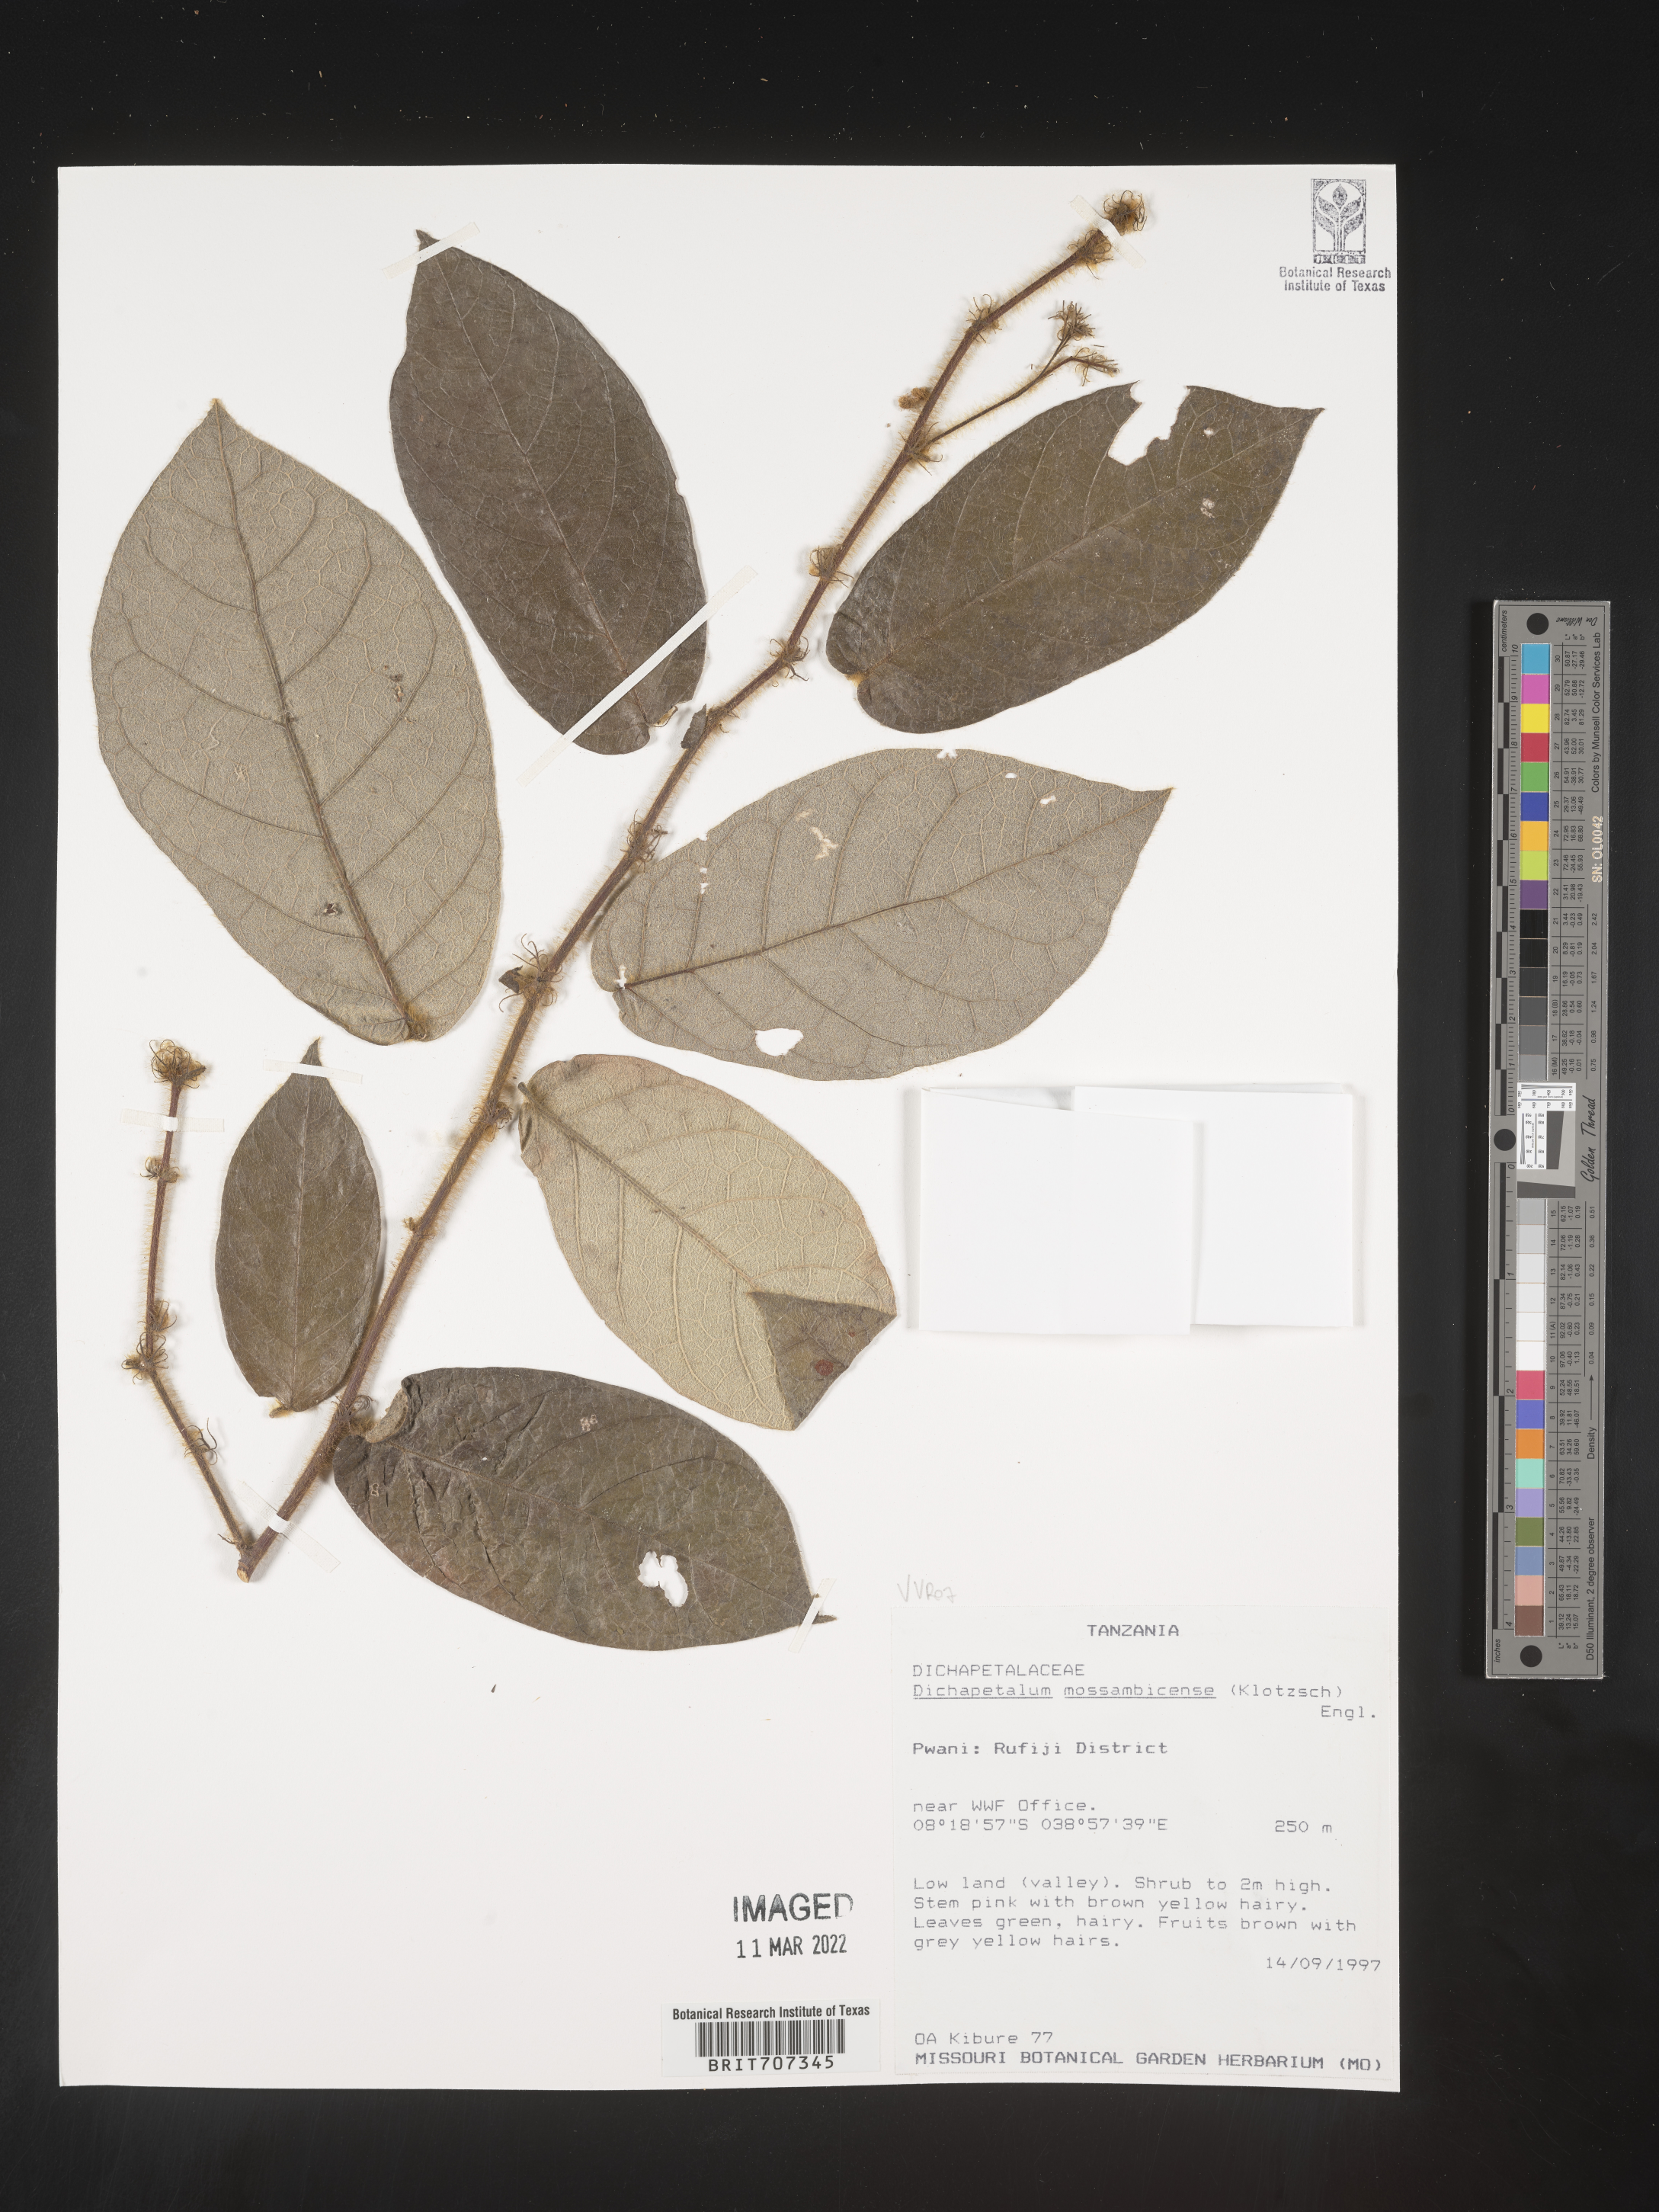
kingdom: Plantae
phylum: Tracheophyta
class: Magnoliopsida
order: Malpighiales
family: Dichapetalaceae
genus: Dichapetalum
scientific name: Dichapetalum
